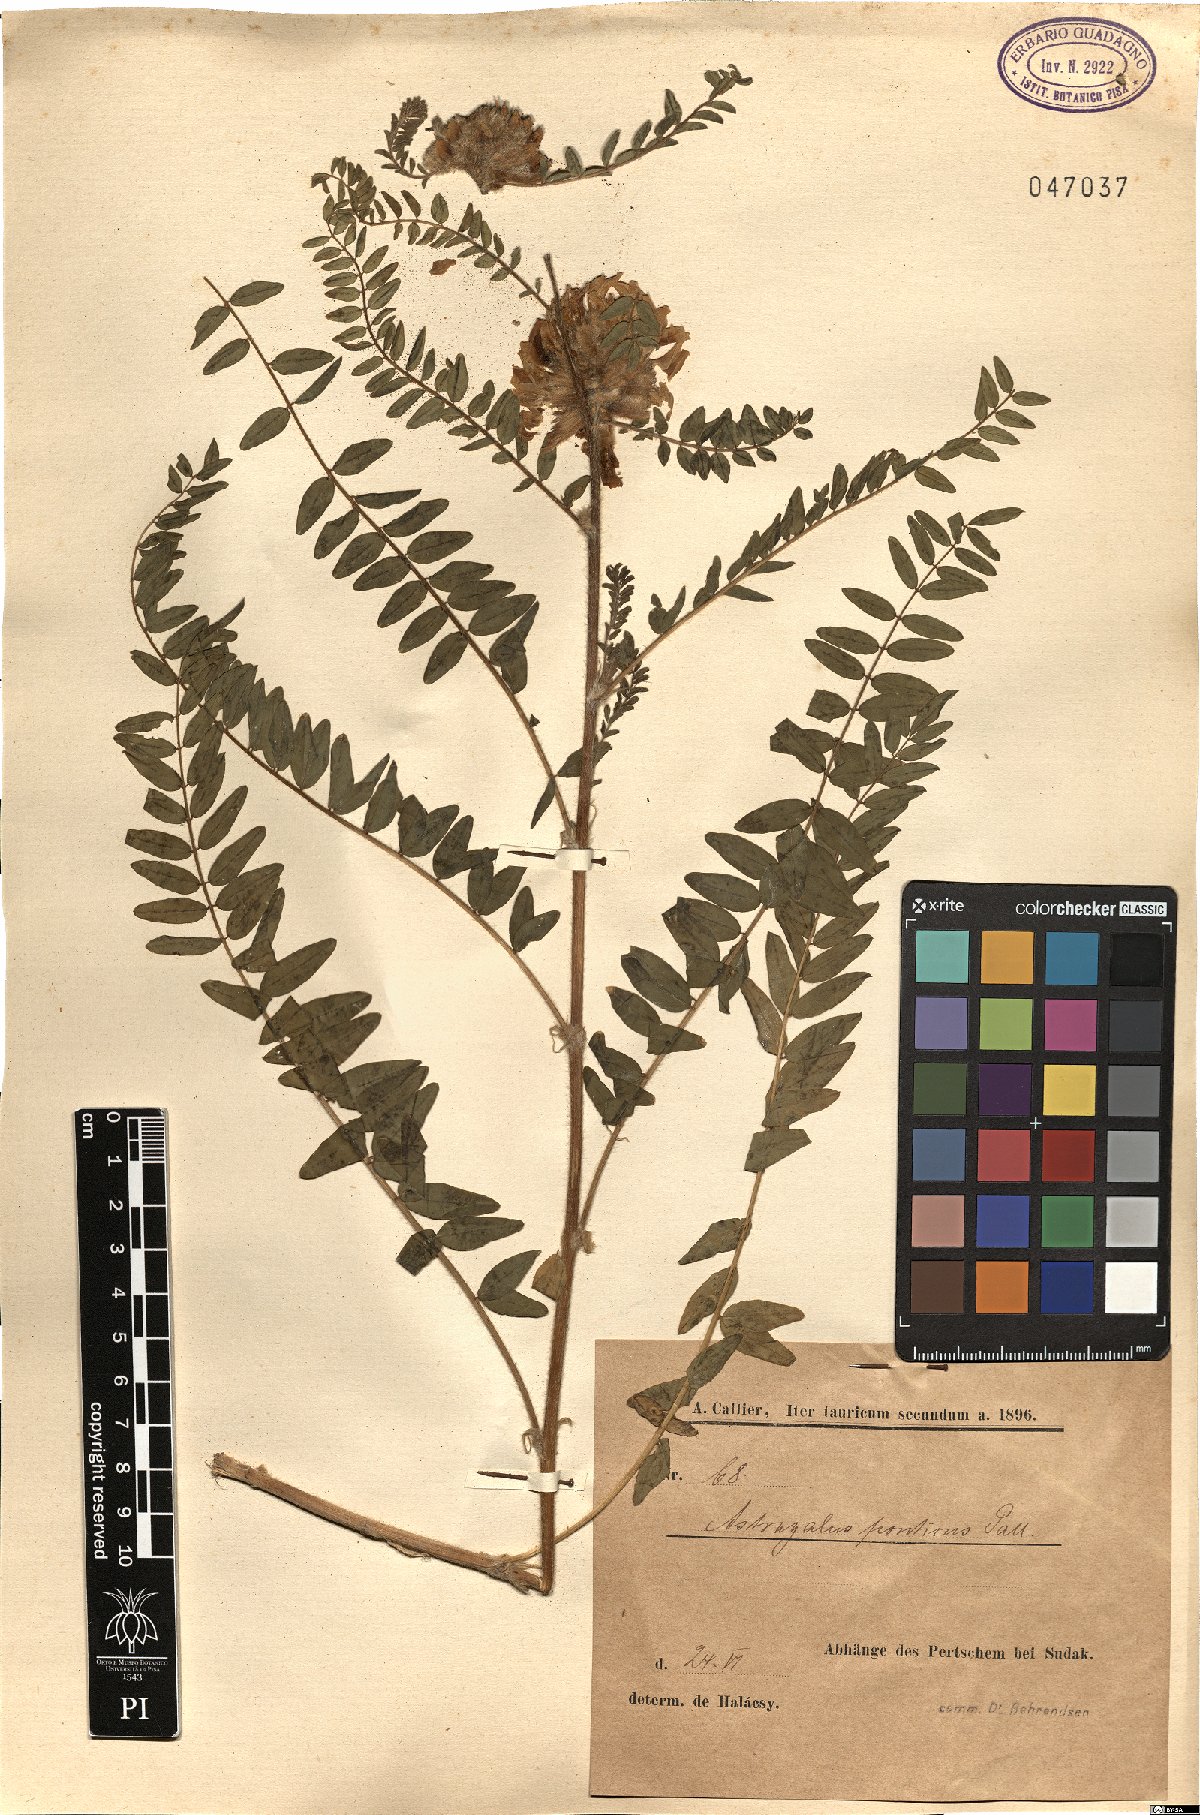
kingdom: Plantae
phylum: Tracheophyta
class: Magnoliopsida
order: Fabales
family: Fabaceae
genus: Astragalus
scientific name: Astragalus ponticus
